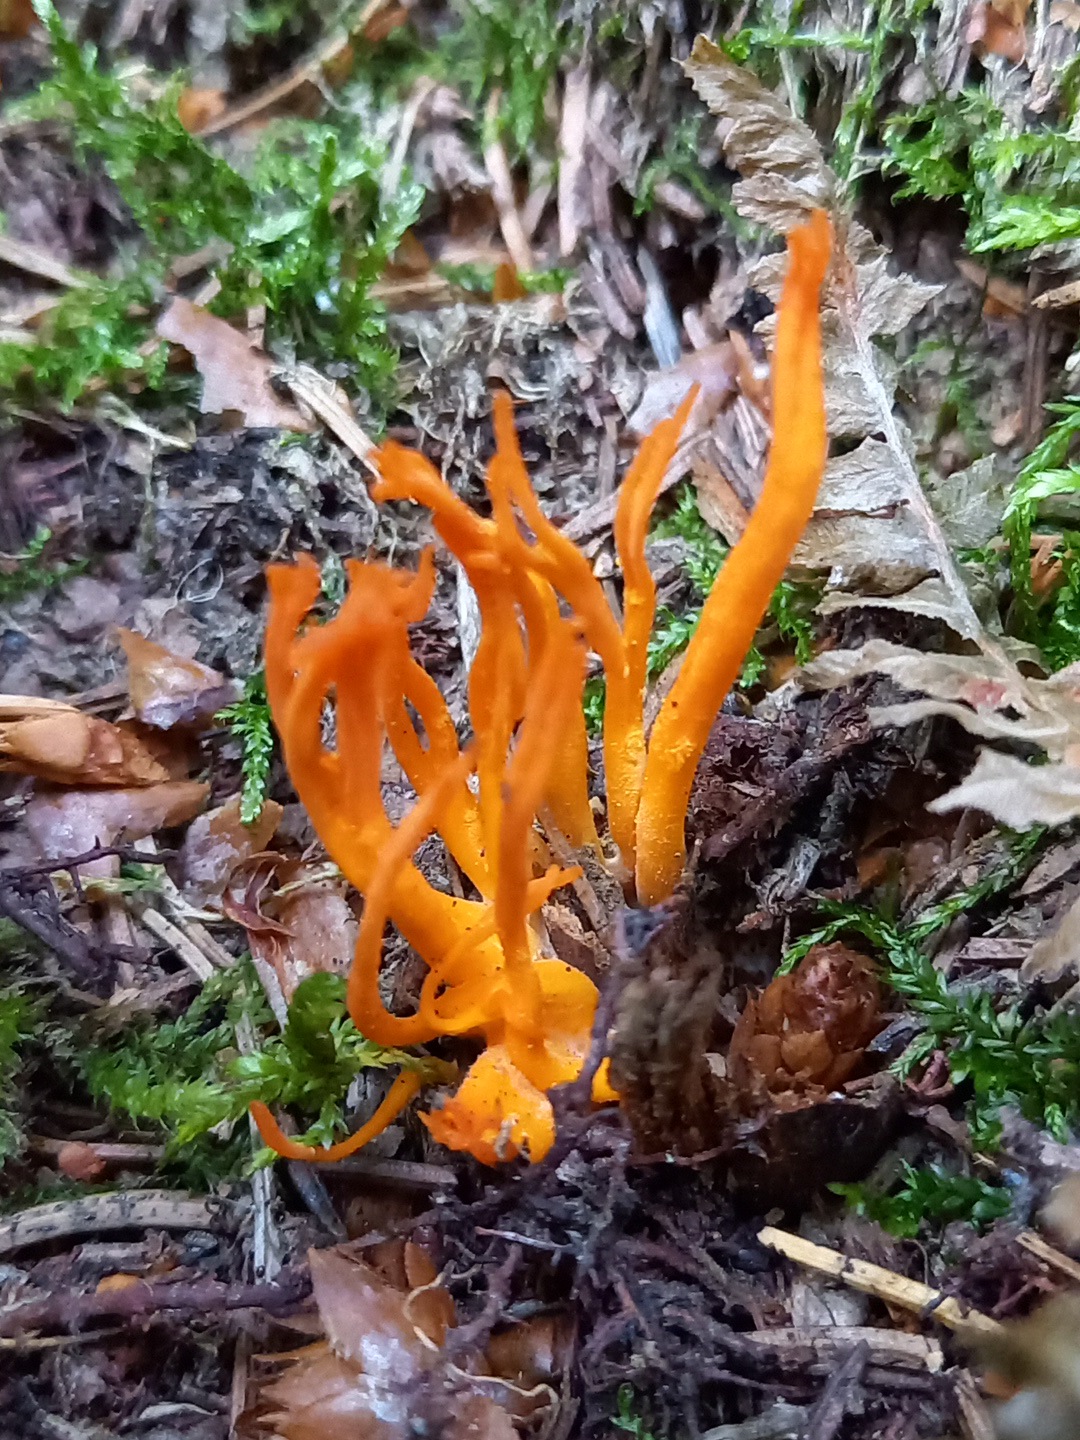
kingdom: Fungi
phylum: Basidiomycota
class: Dacrymycetes
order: Dacrymycetales
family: Dacrymycetaceae
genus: Calocera
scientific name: Calocera viscosa
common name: almindelig guldgaffel
